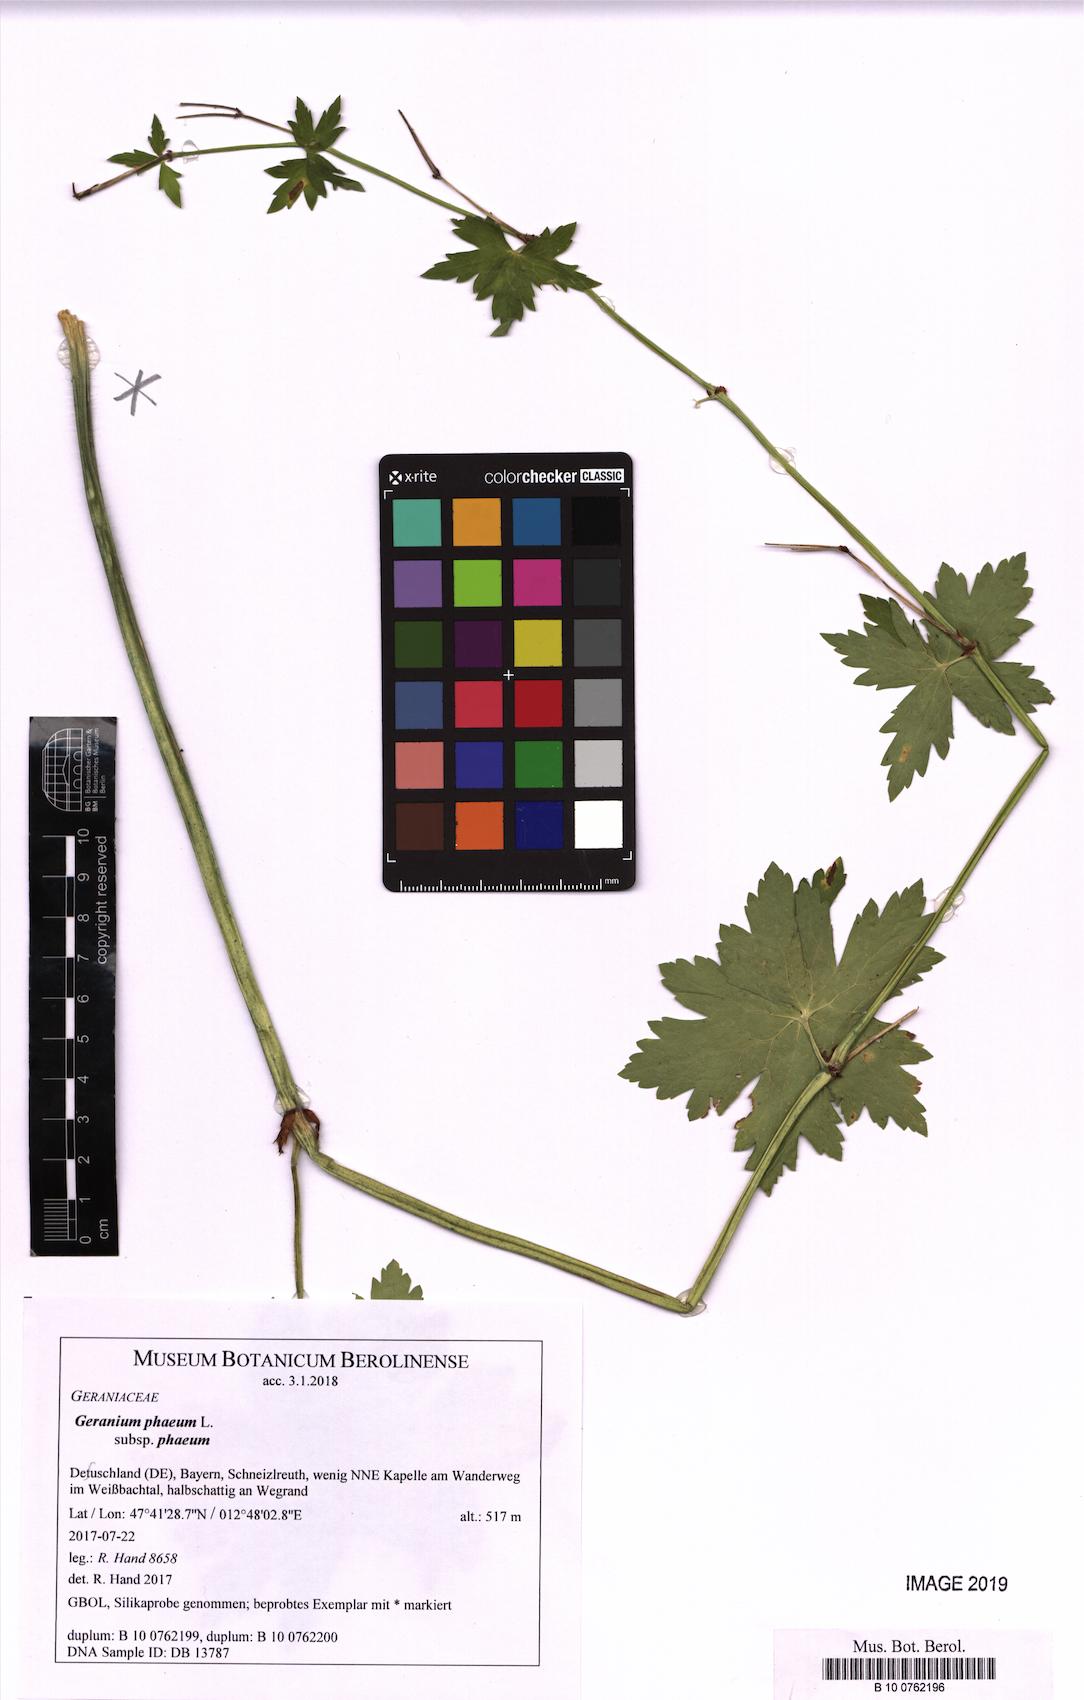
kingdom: Plantae
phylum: Tracheophyta
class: Magnoliopsida
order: Geraniales
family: Geraniaceae
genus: Geranium
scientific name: Geranium phaeum
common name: Dusky crane's-bill
